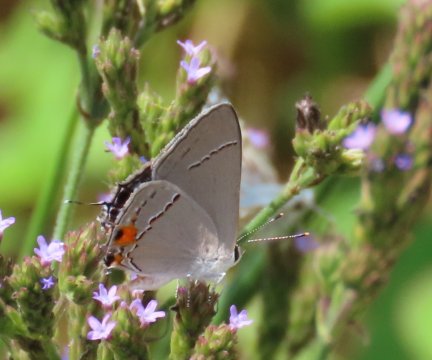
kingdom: Animalia
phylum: Arthropoda
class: Insecta
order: Lepidoptera
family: Lycaenidae
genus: Strymon
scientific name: Strymon melinus
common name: Gray Hairstreak
